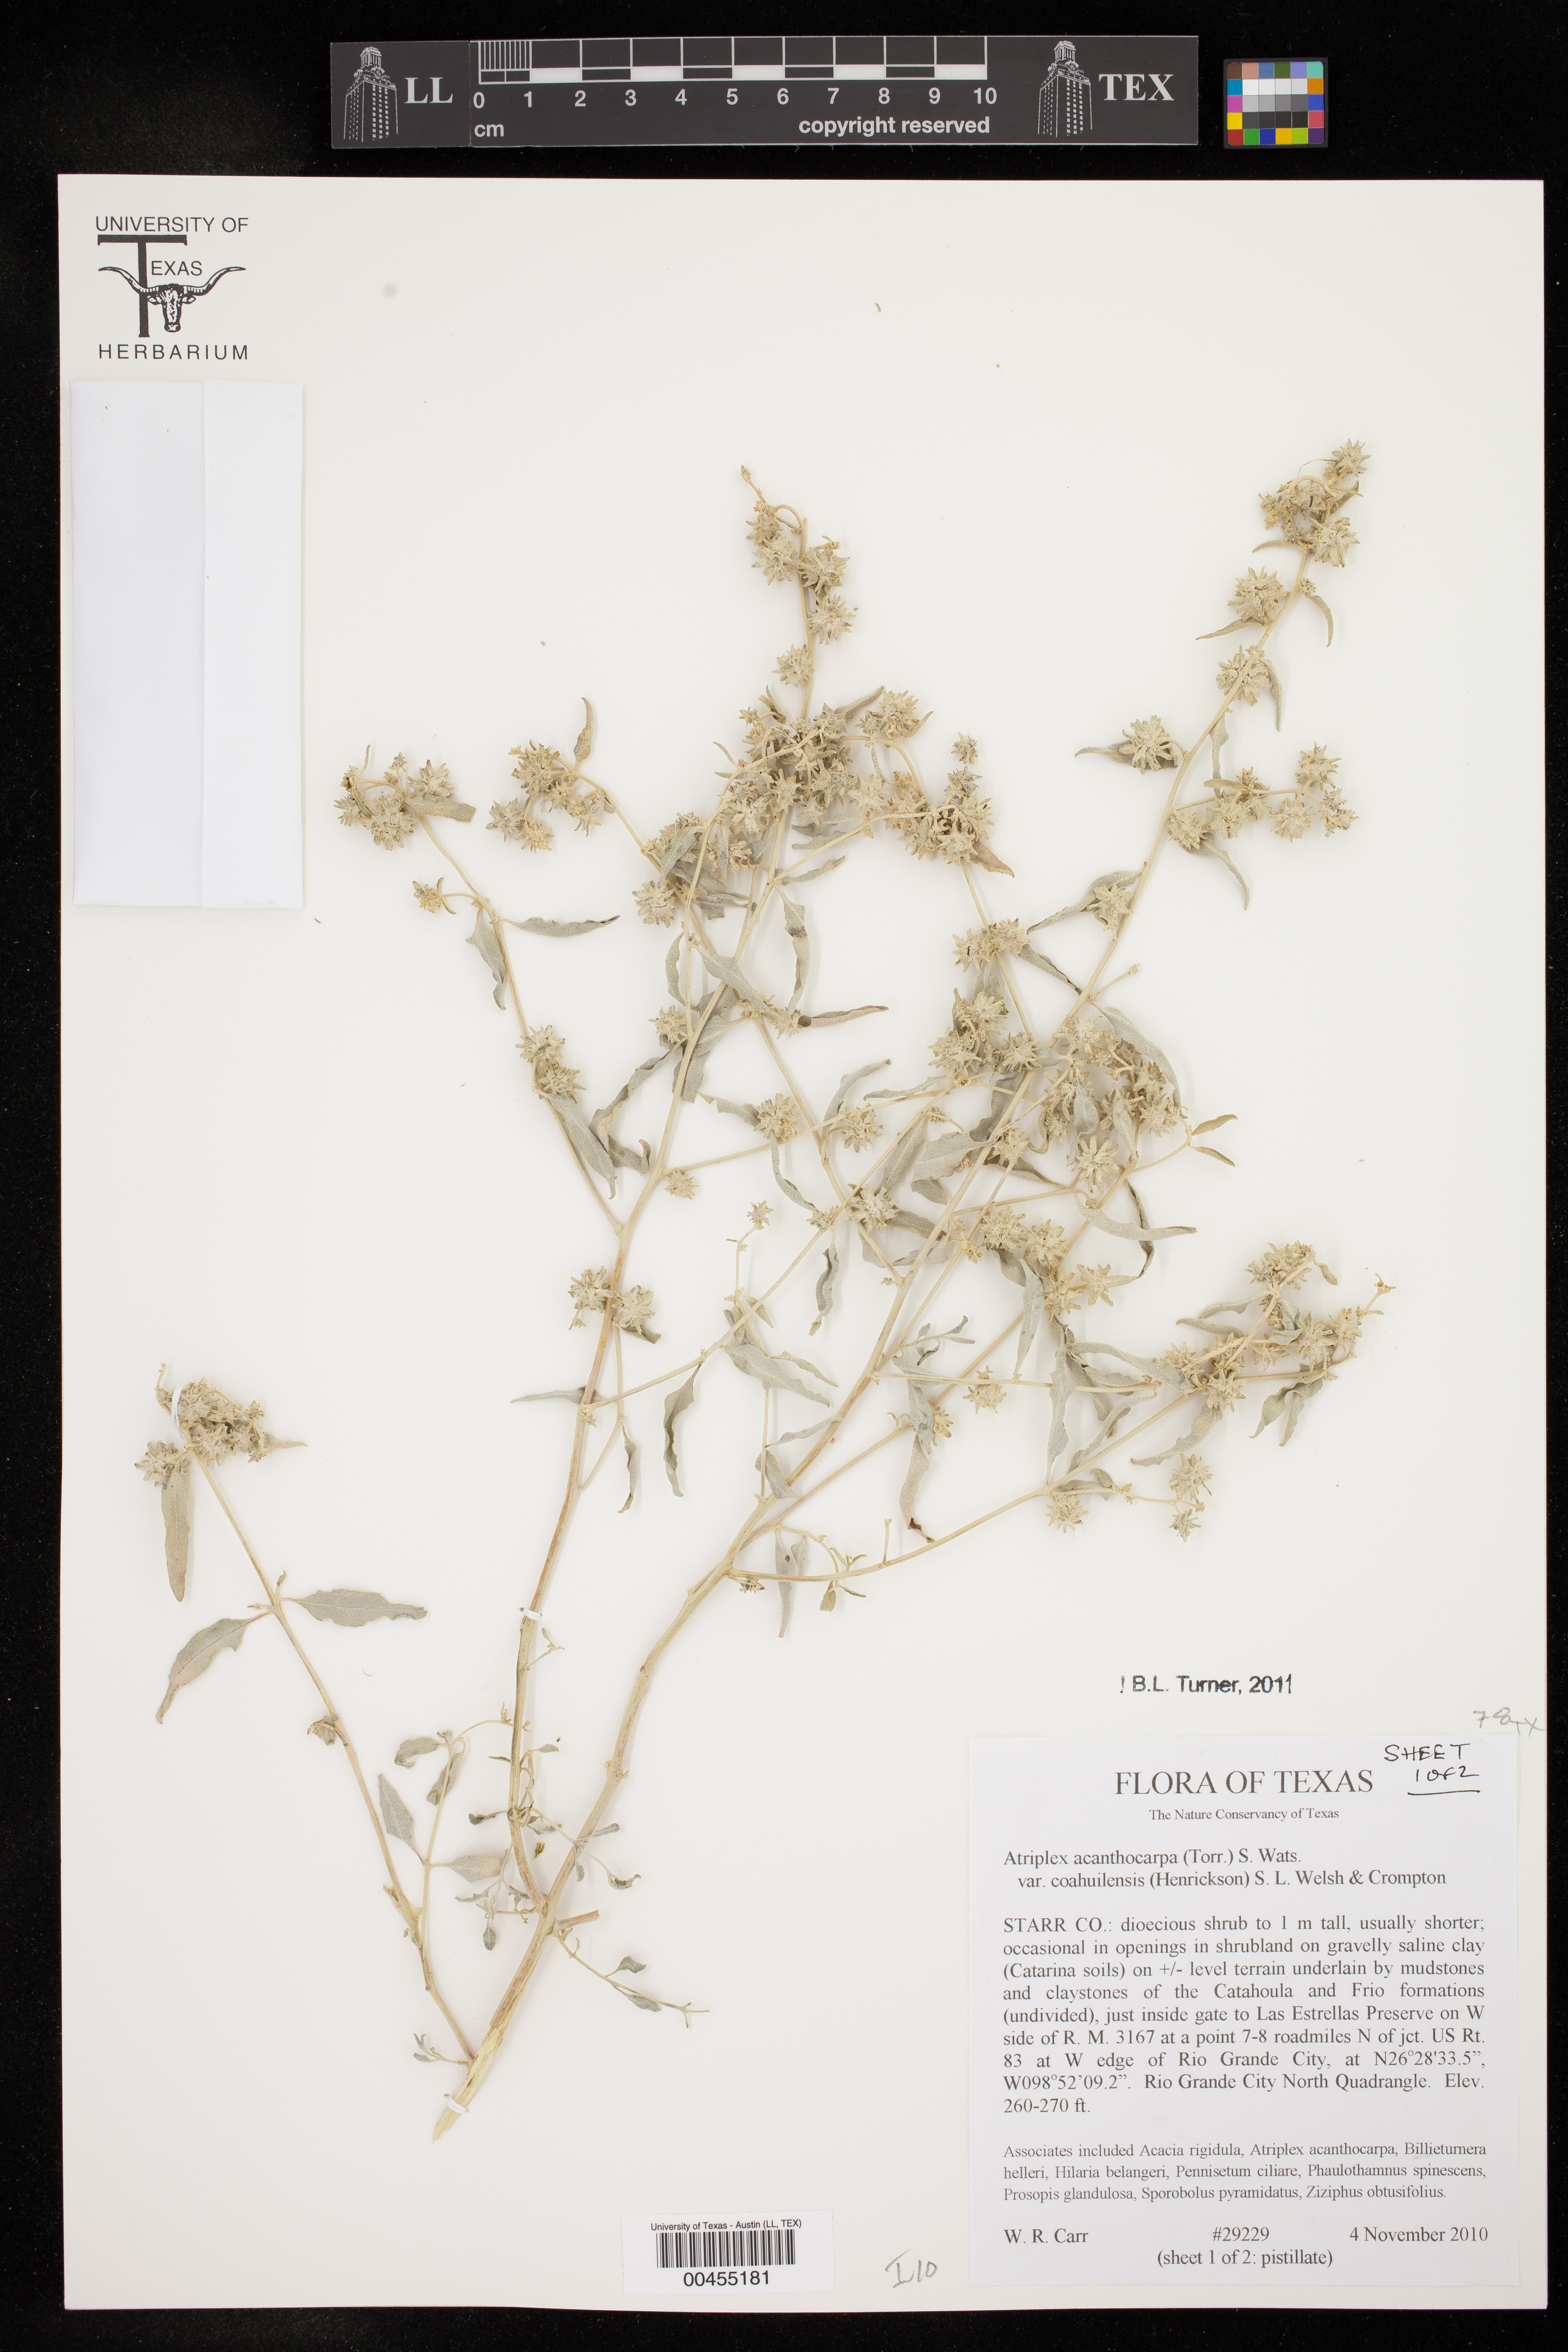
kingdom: Plantae
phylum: Tracheophyta
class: Magnoliopsida
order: Caryophyllales
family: Amaranthaceae
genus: Atriplex
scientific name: Atriplex acanthocarpa
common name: Burscale
